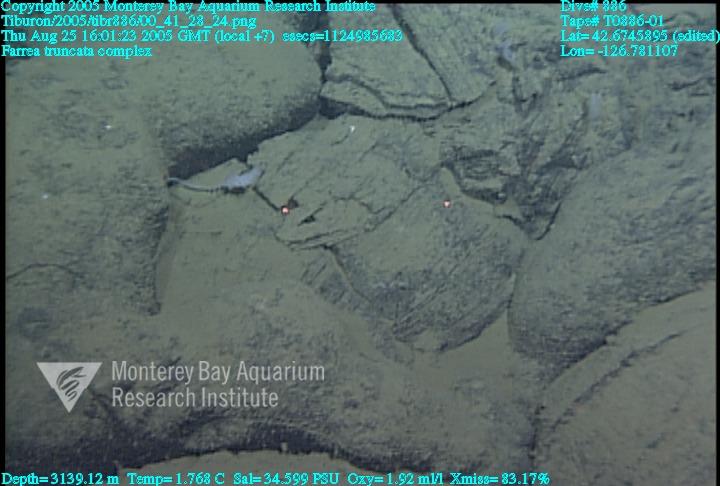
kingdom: Animalia
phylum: Porifera
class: Hexactinellida
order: Sceptrulophora
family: Farreidae
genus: Farrea
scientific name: Farrea truncata
